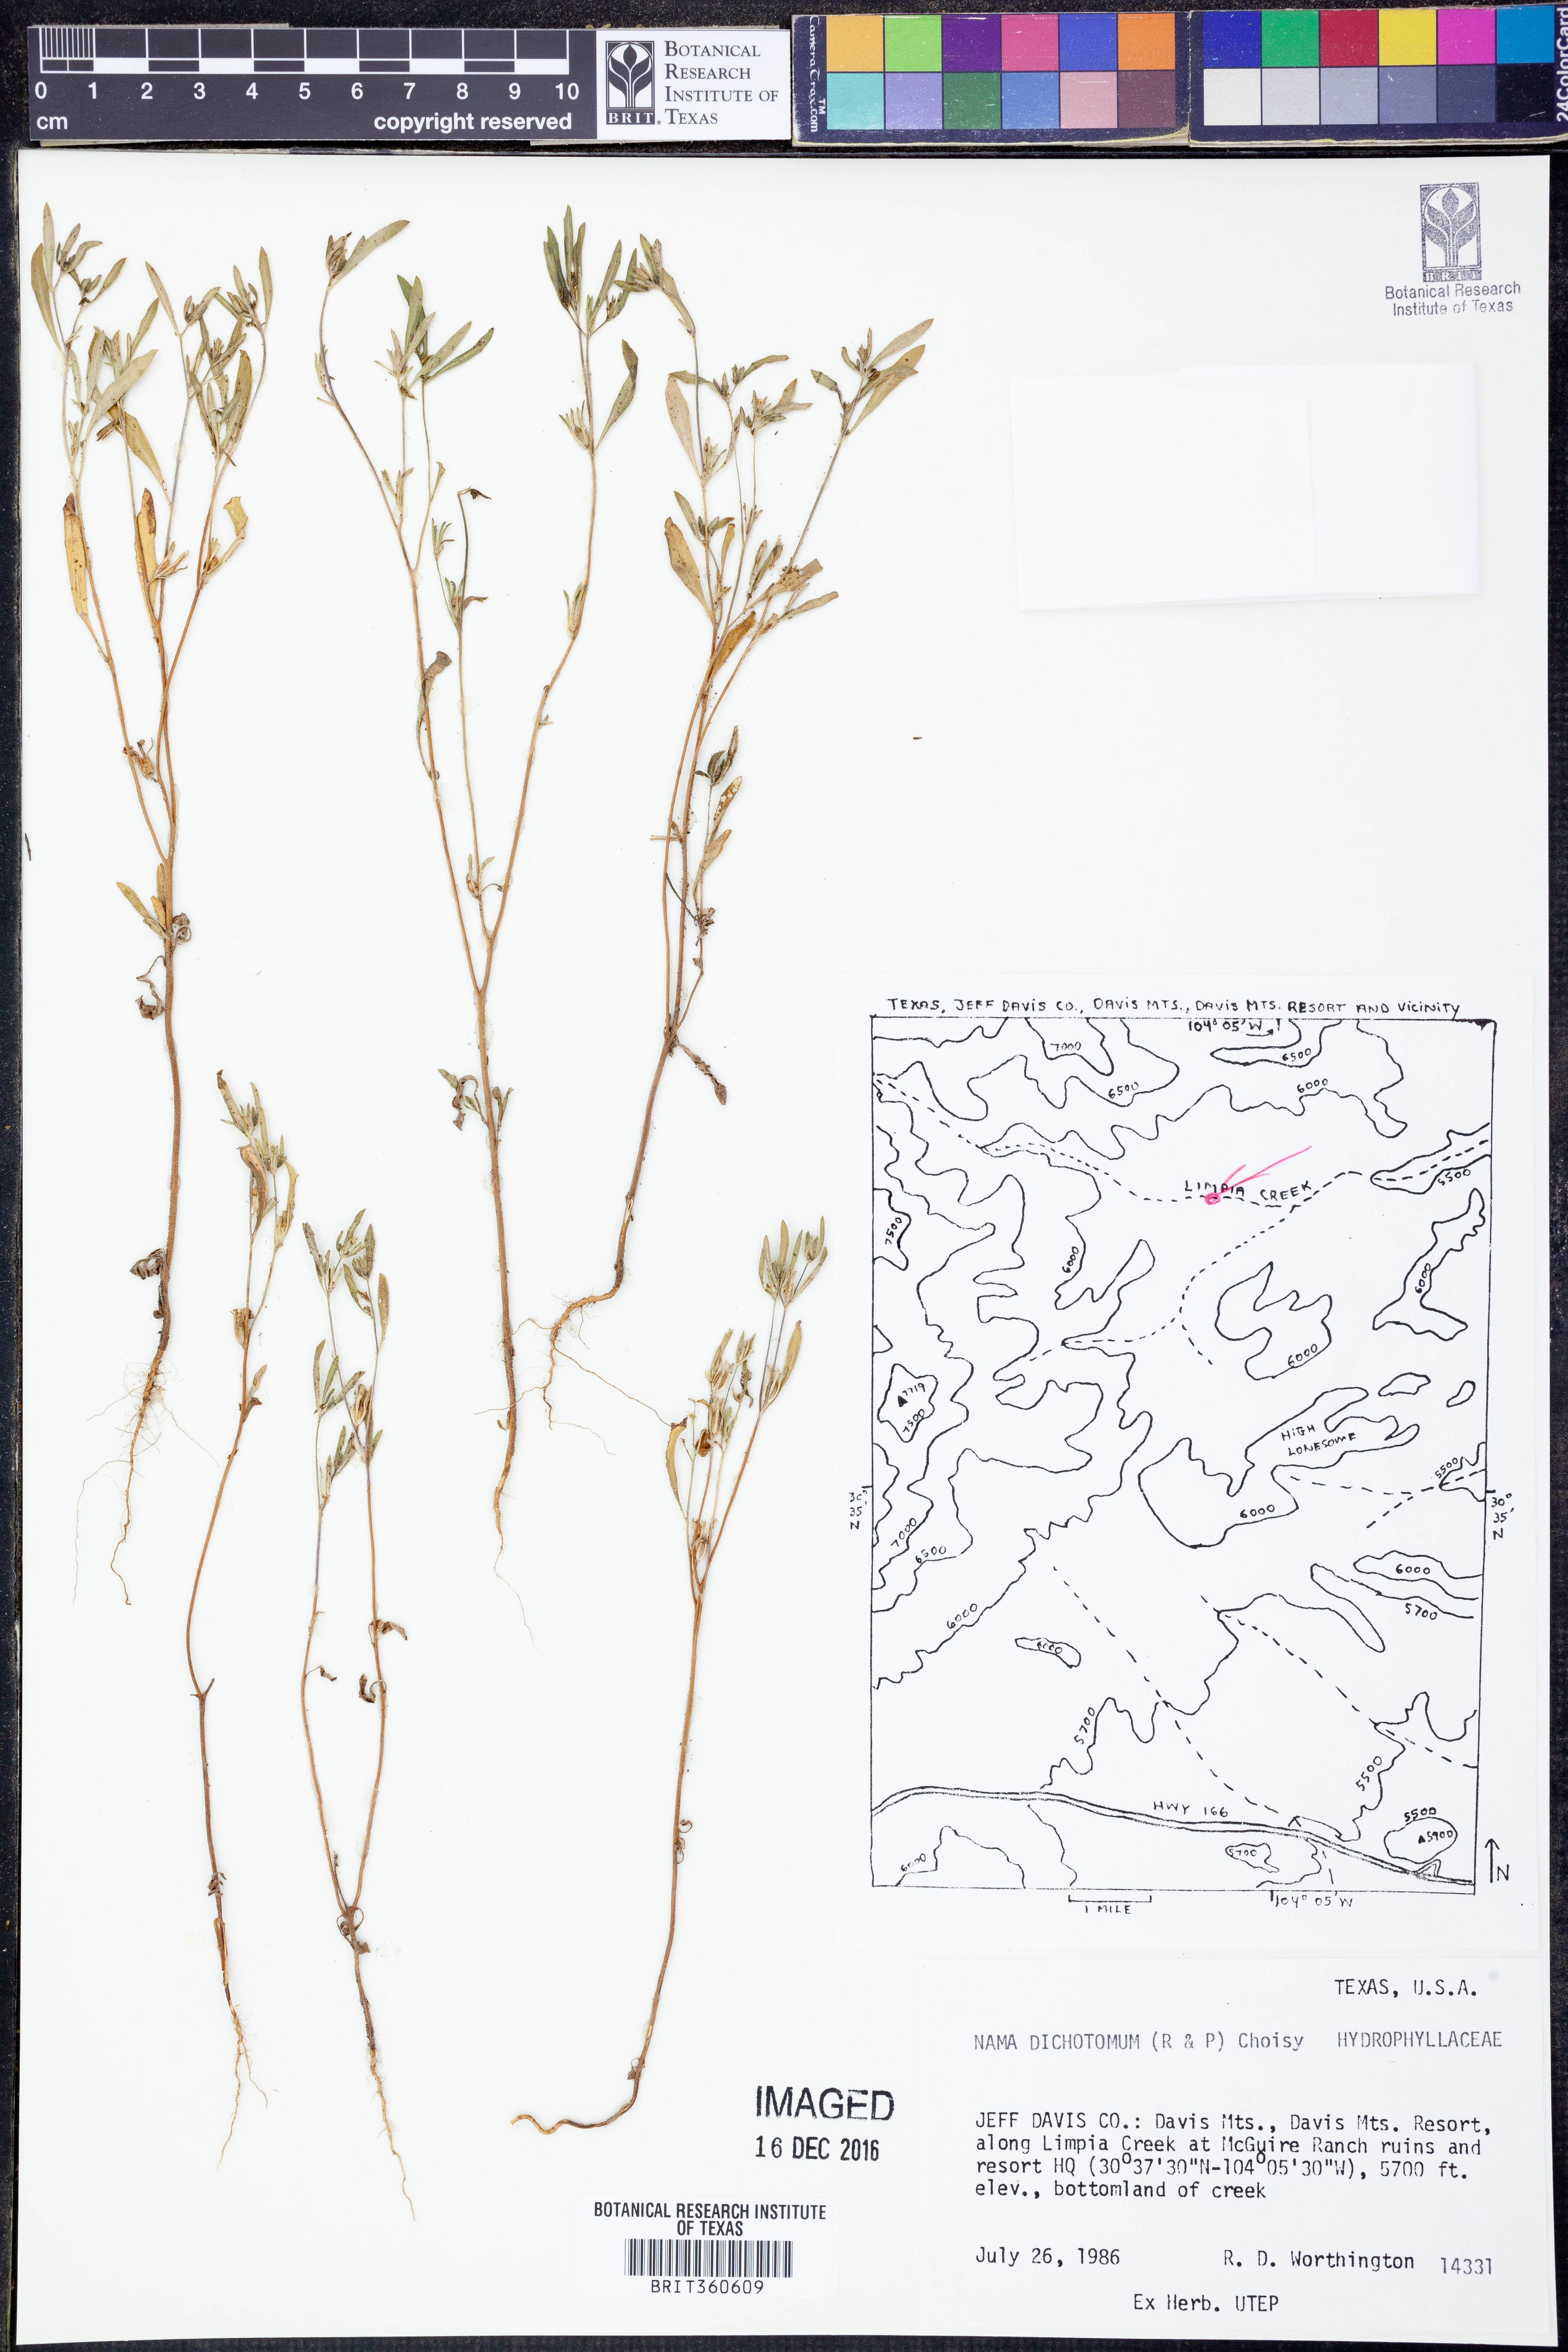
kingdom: Plantae
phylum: Tracheophyta
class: Magnoliopsida
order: Boraginales
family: Namaceae
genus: Nama
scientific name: Nama dichotoma
